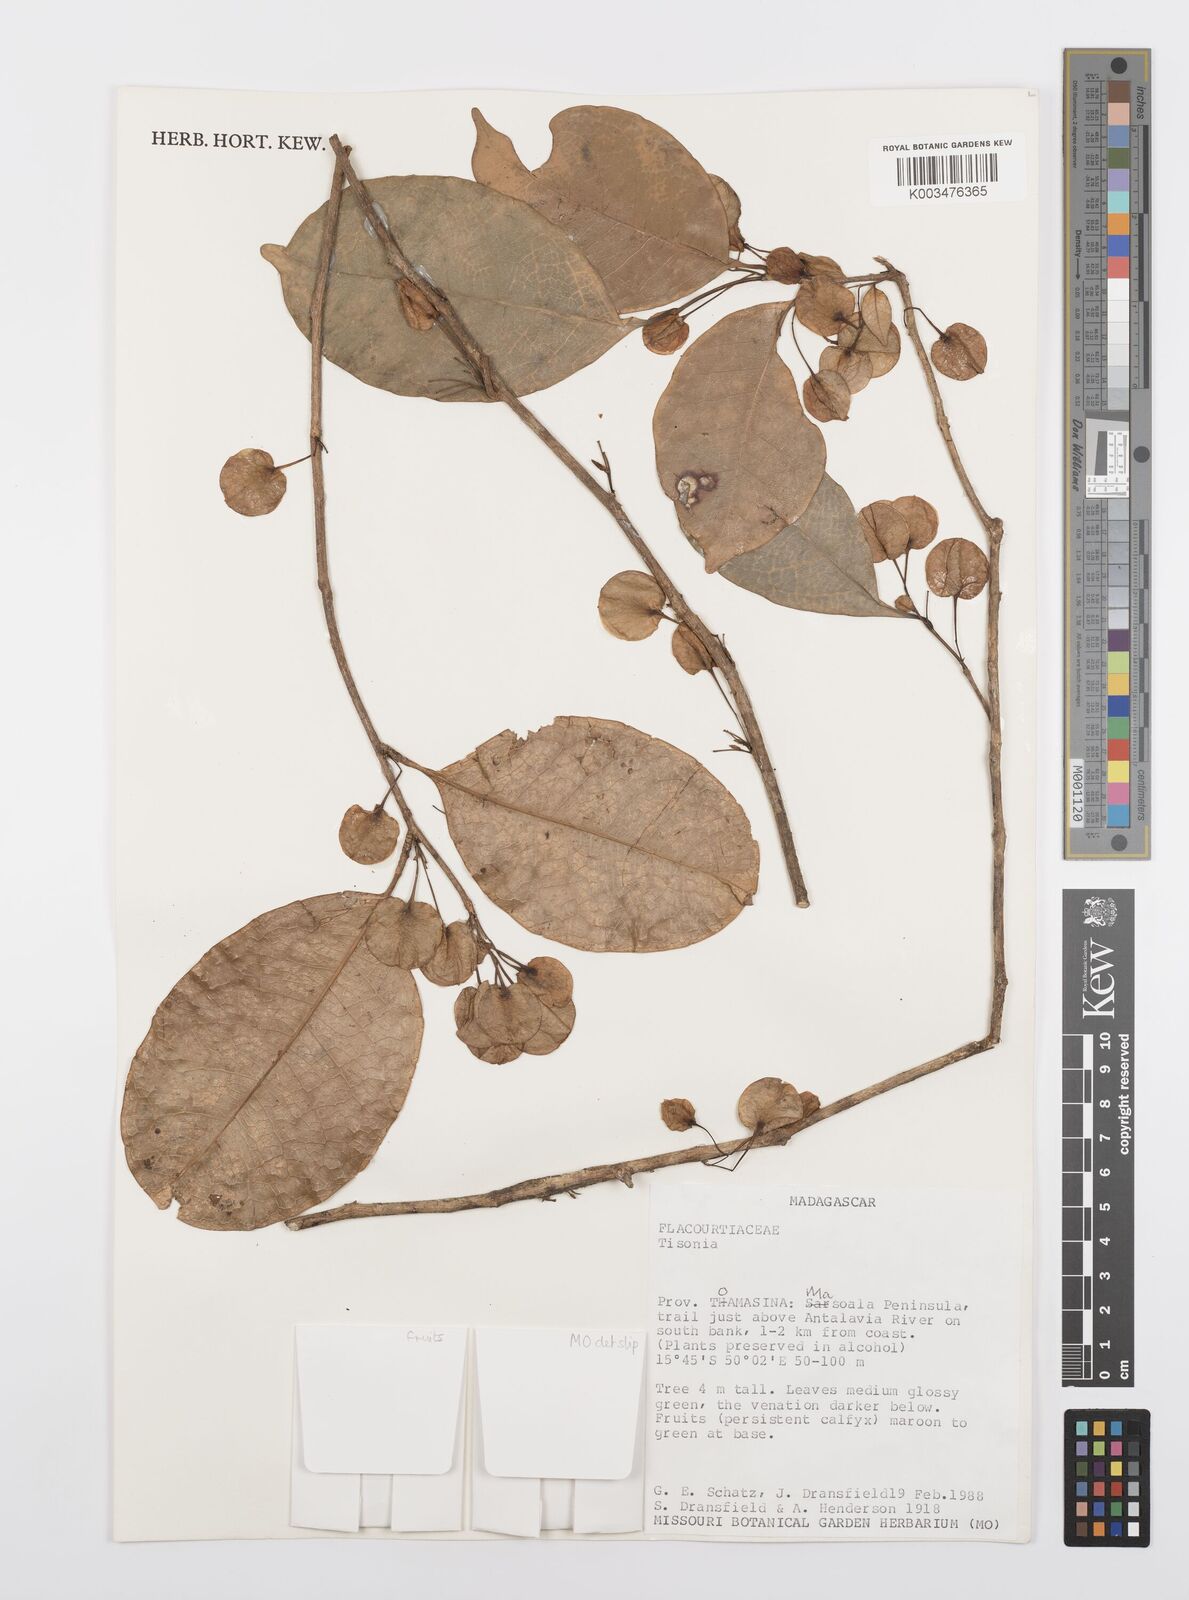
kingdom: Plantae
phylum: Tracheophyta
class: Magnoliopsida
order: Malpighiales
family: Salicaceae
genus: Tisonia
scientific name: Tisonia
